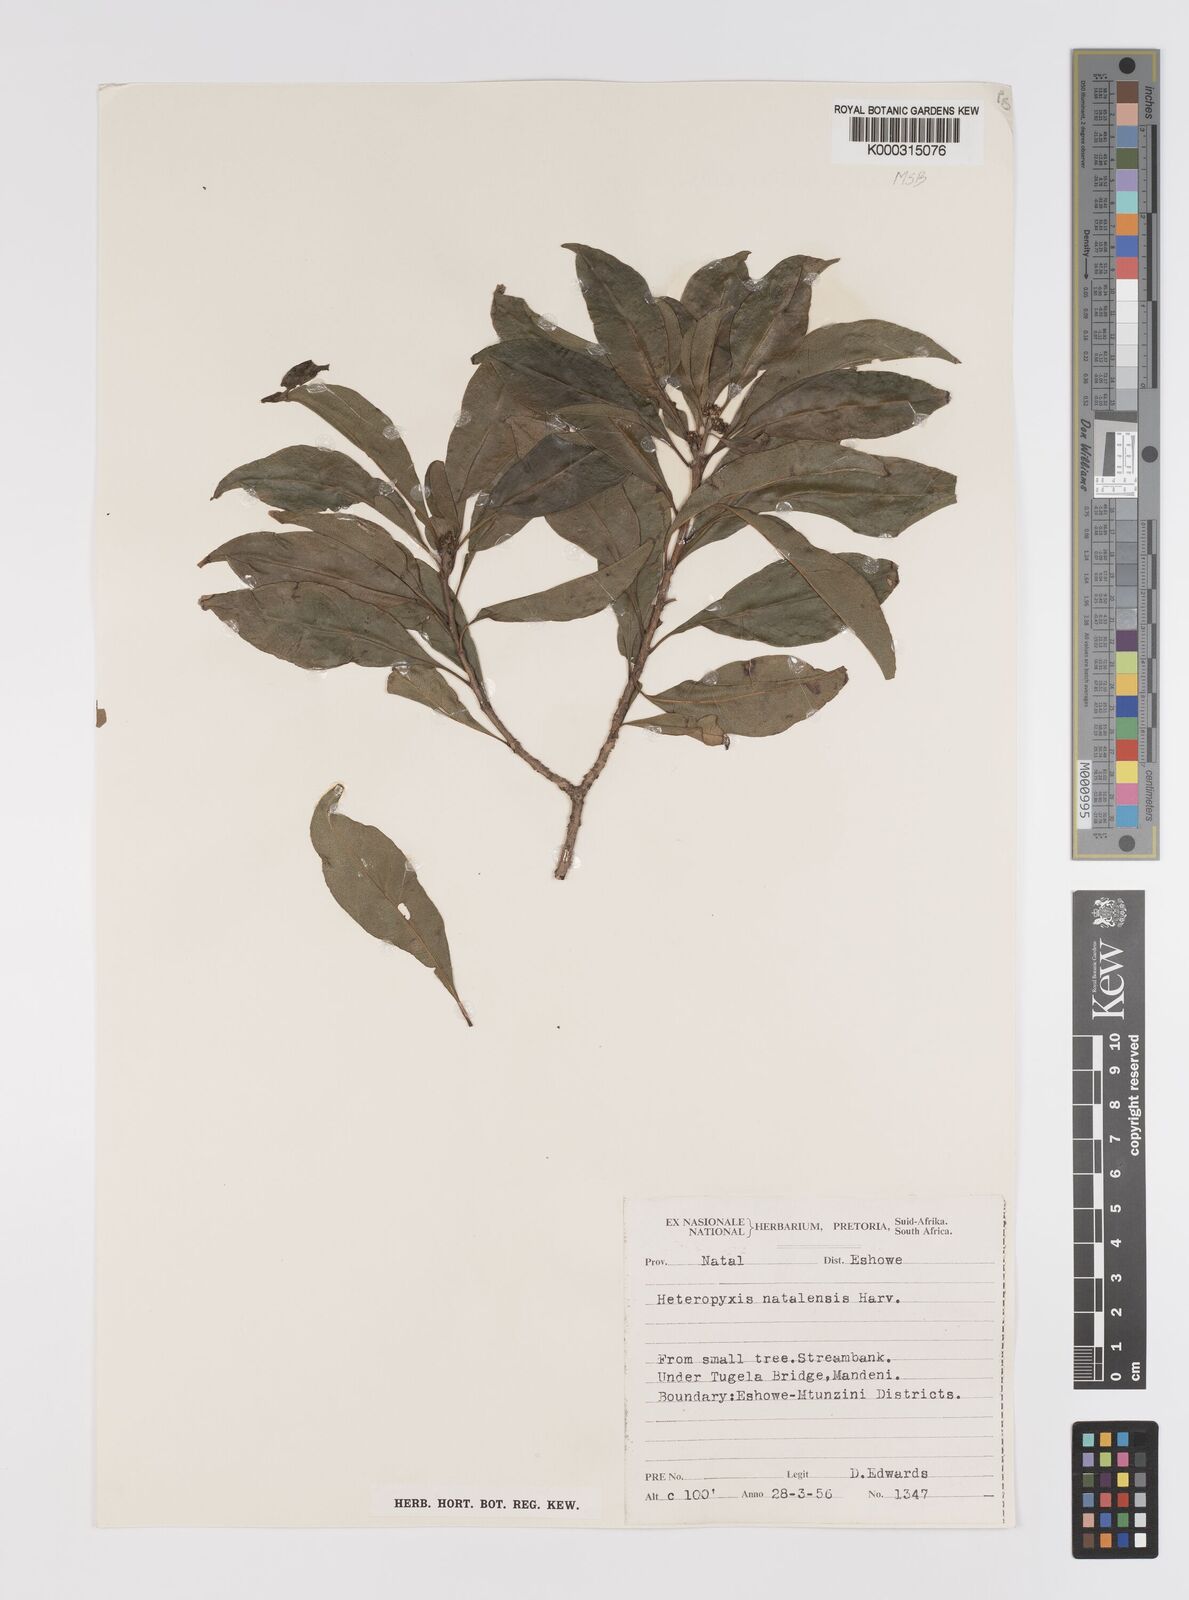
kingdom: Plantae
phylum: Tracheophyta
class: Magnoliopsida
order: Myrtales
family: Myrtaceae
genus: Heteropyxis
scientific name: Heteropyxis natalensis
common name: Lavender tree
